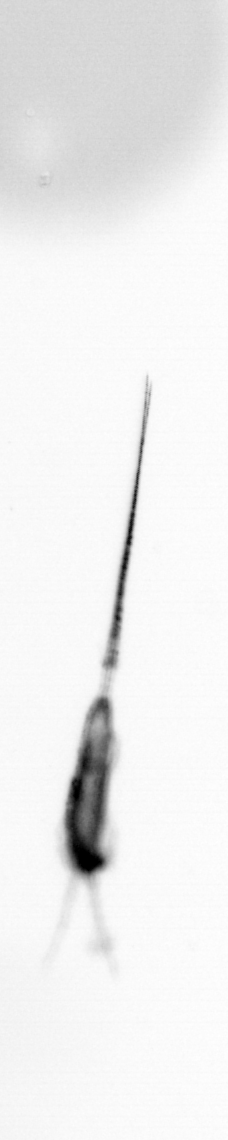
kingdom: Animalia
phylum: Arthropoda
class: Copepoda
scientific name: Copepoda
